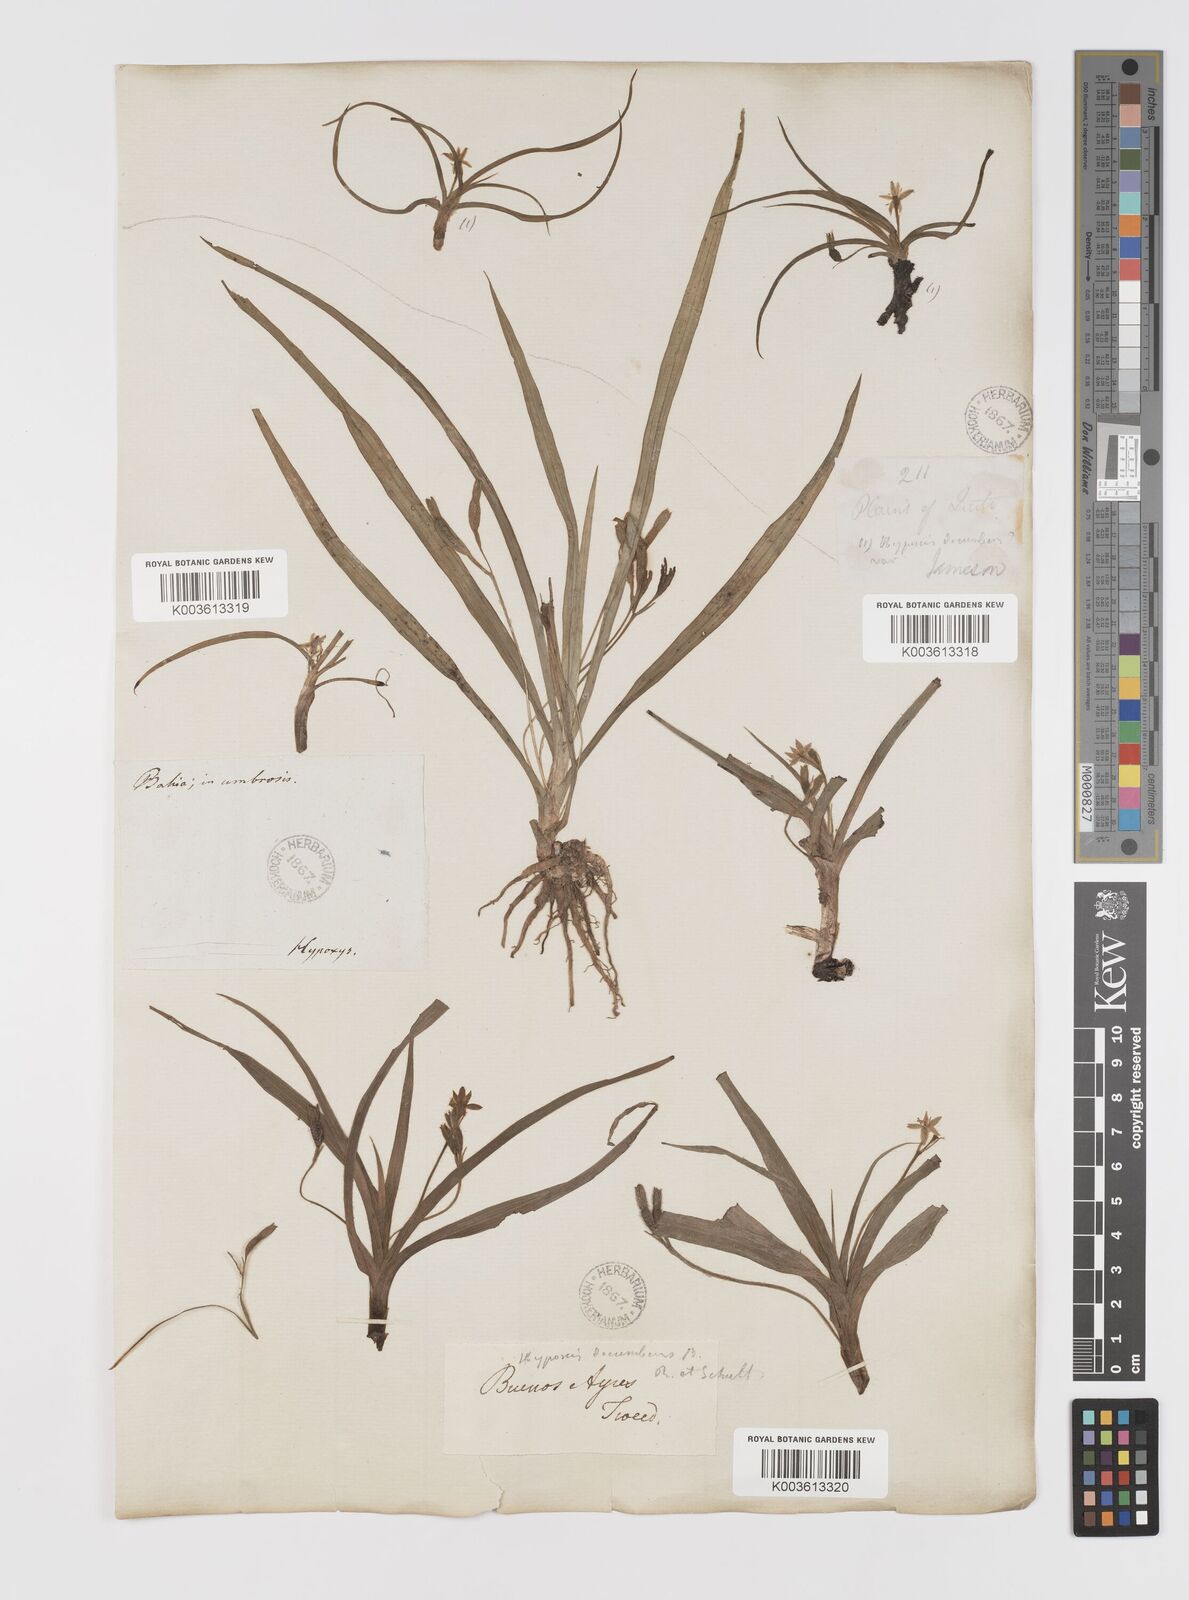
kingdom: Plantae
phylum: Tracheophyta
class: Liliopsida
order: Asparagales
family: Hypoxidaceae
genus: Hypoxis
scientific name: Hypoxis decumbens
